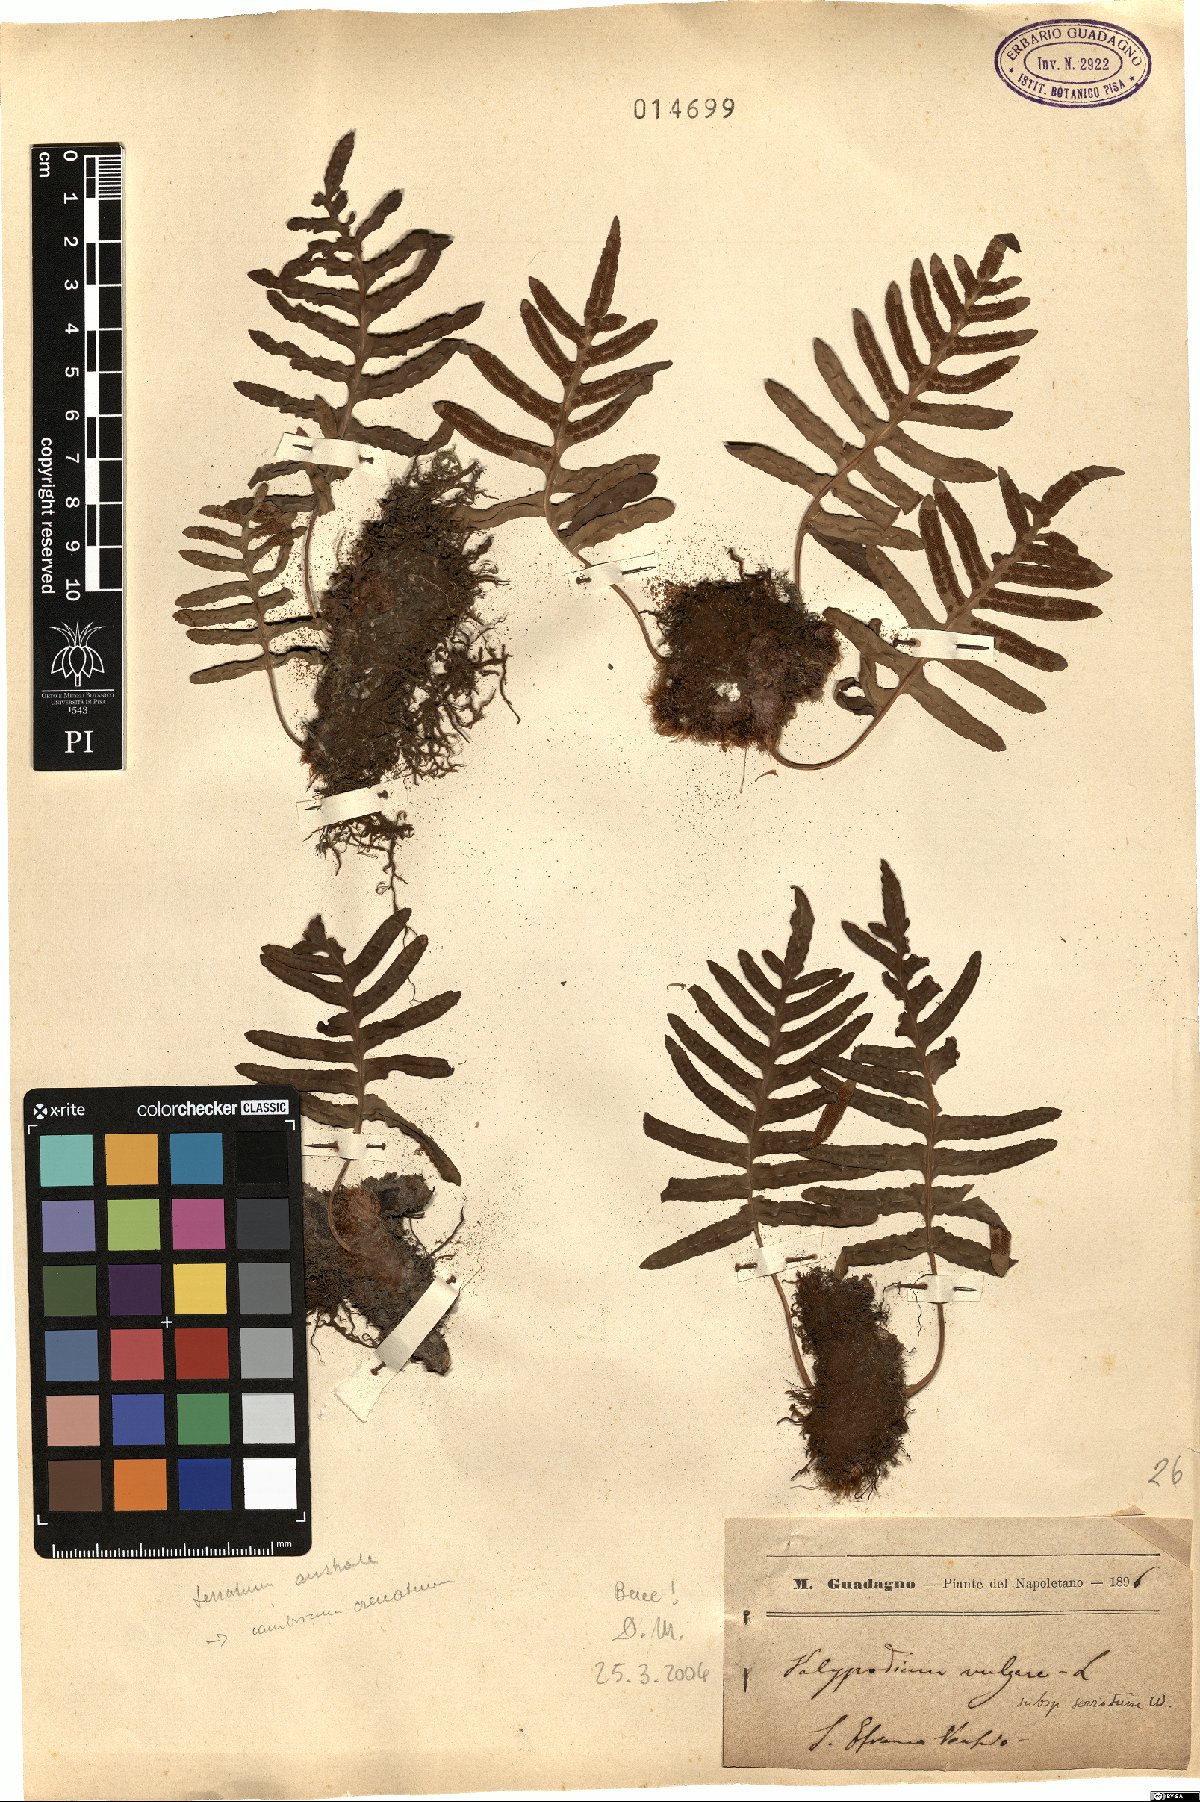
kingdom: Plantae
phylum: Tracheophyta
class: Polypodiopsida
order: Polypodiales
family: Polypodiaceae
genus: Polypodium
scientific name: Polypodium cambricum
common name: Southern polypody
